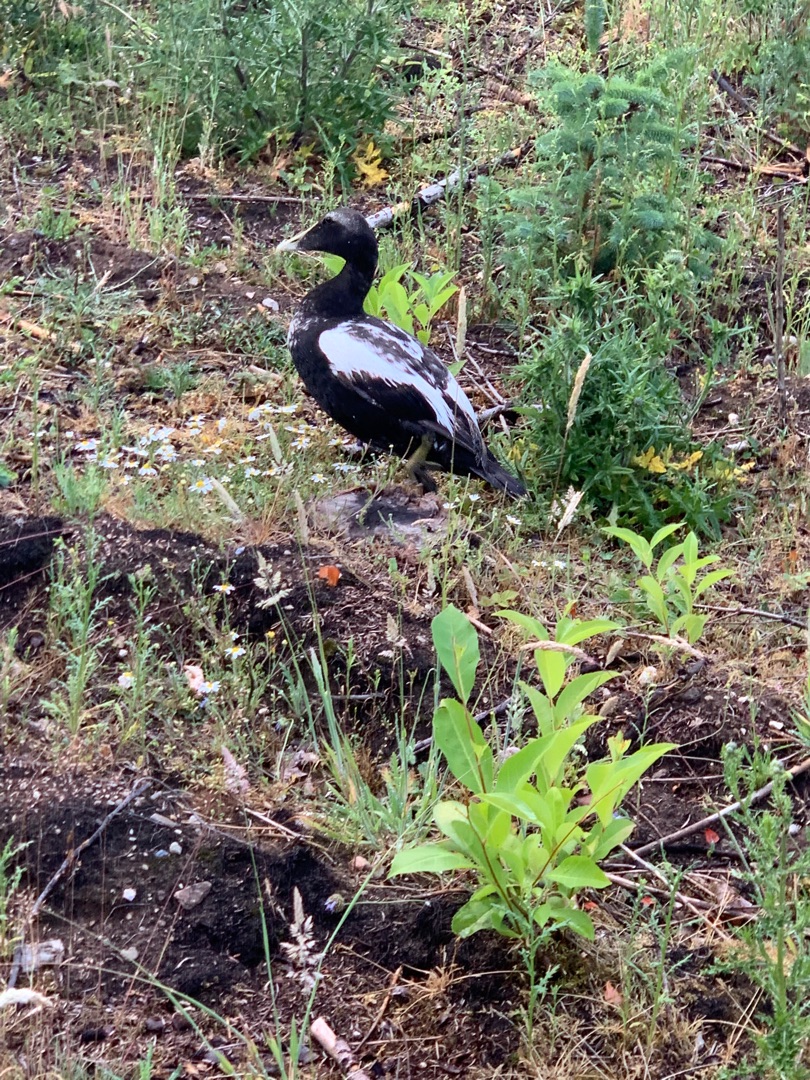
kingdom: Animalia
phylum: Chordata
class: Aves
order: Anseriformes
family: Anatidae
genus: Somateria
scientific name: Somateria mollissima
